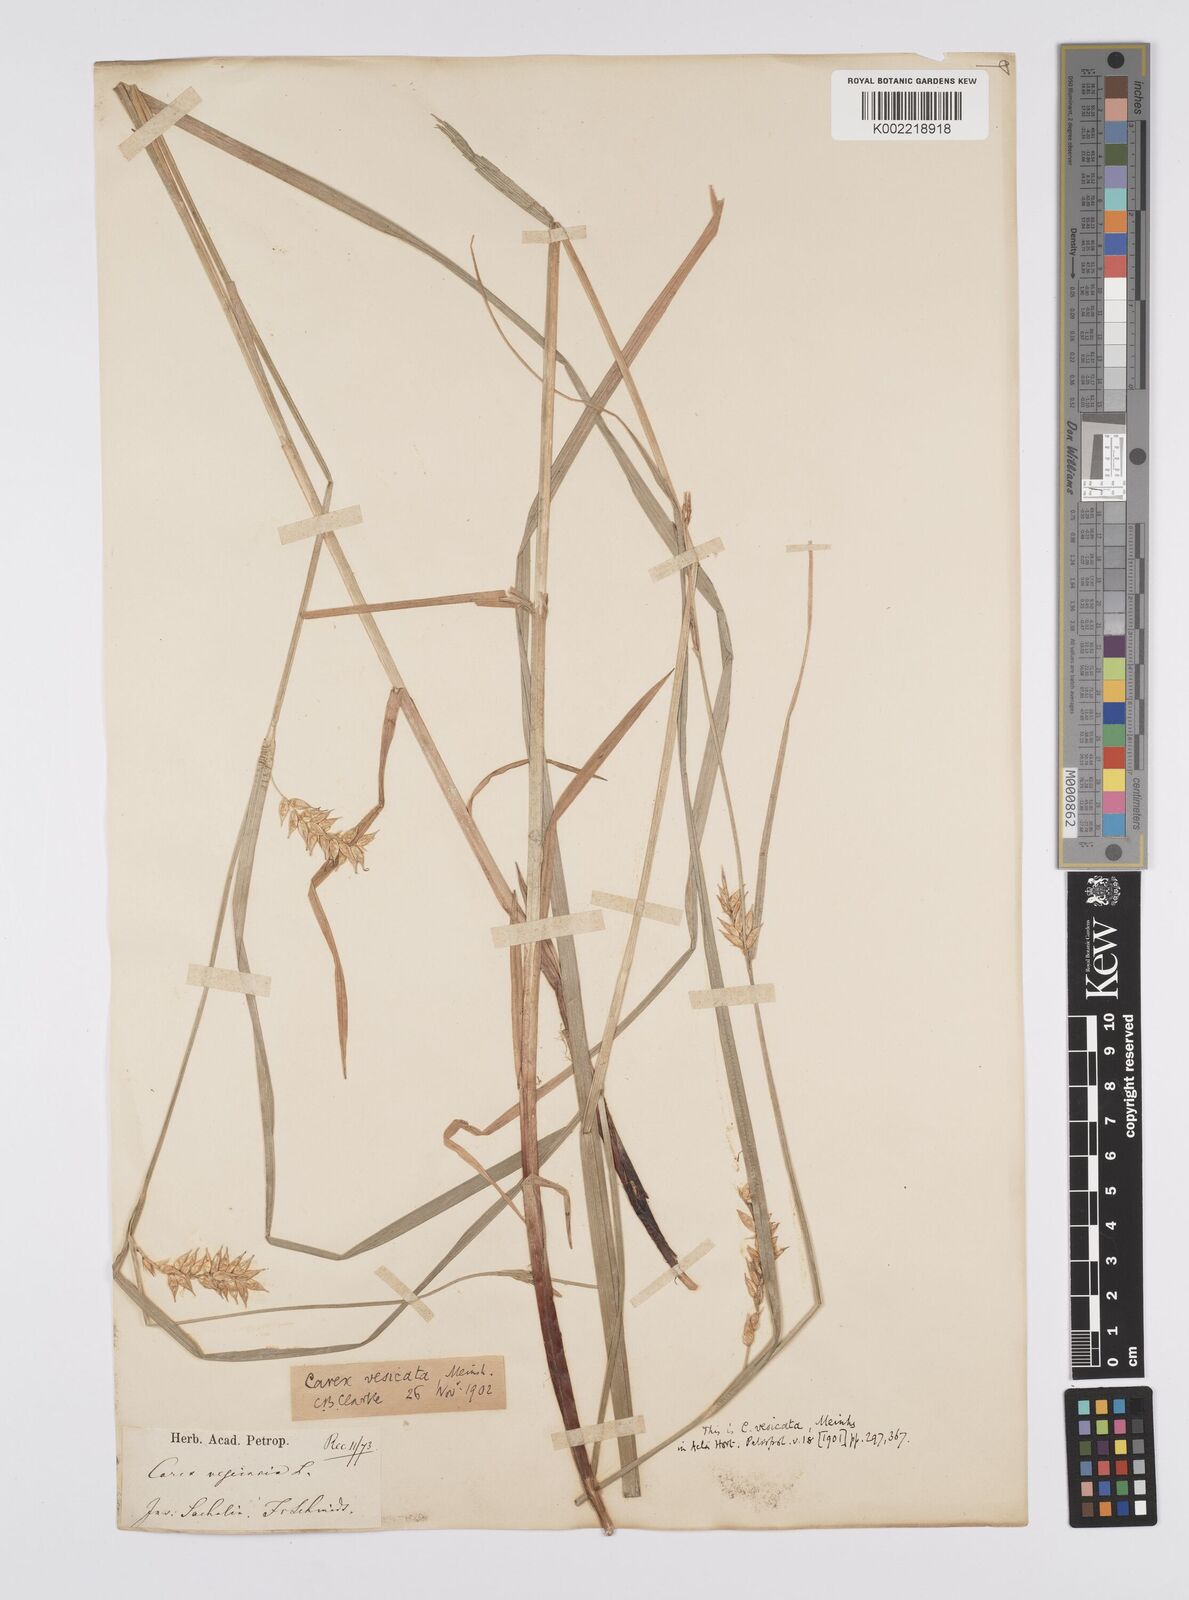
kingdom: Plantae
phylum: Tracheophyta
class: Liliopsida
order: Poales
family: Cyperaceae
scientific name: Cyperaceae
